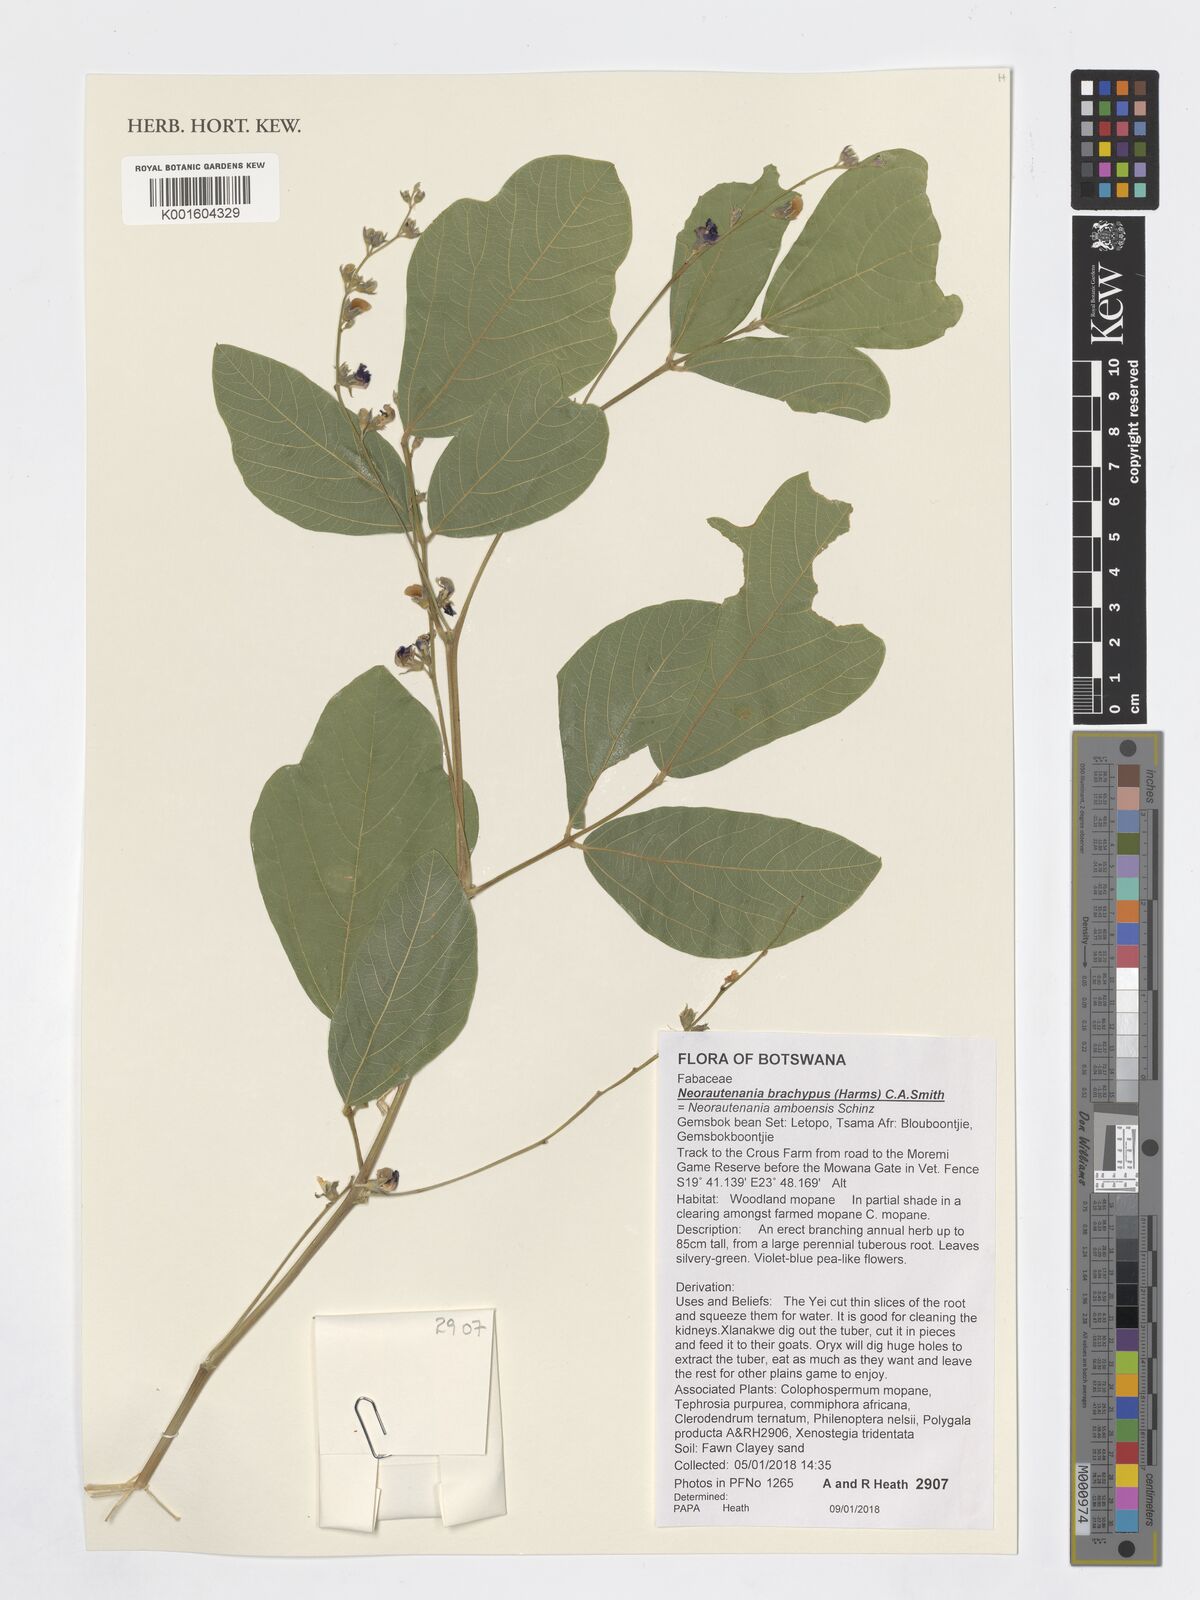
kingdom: Plantae
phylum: Tracheophyta
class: Magnoliopsida
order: Fabales
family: Fabaceae
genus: Neorautanenia
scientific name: Neorautanenia mitis
